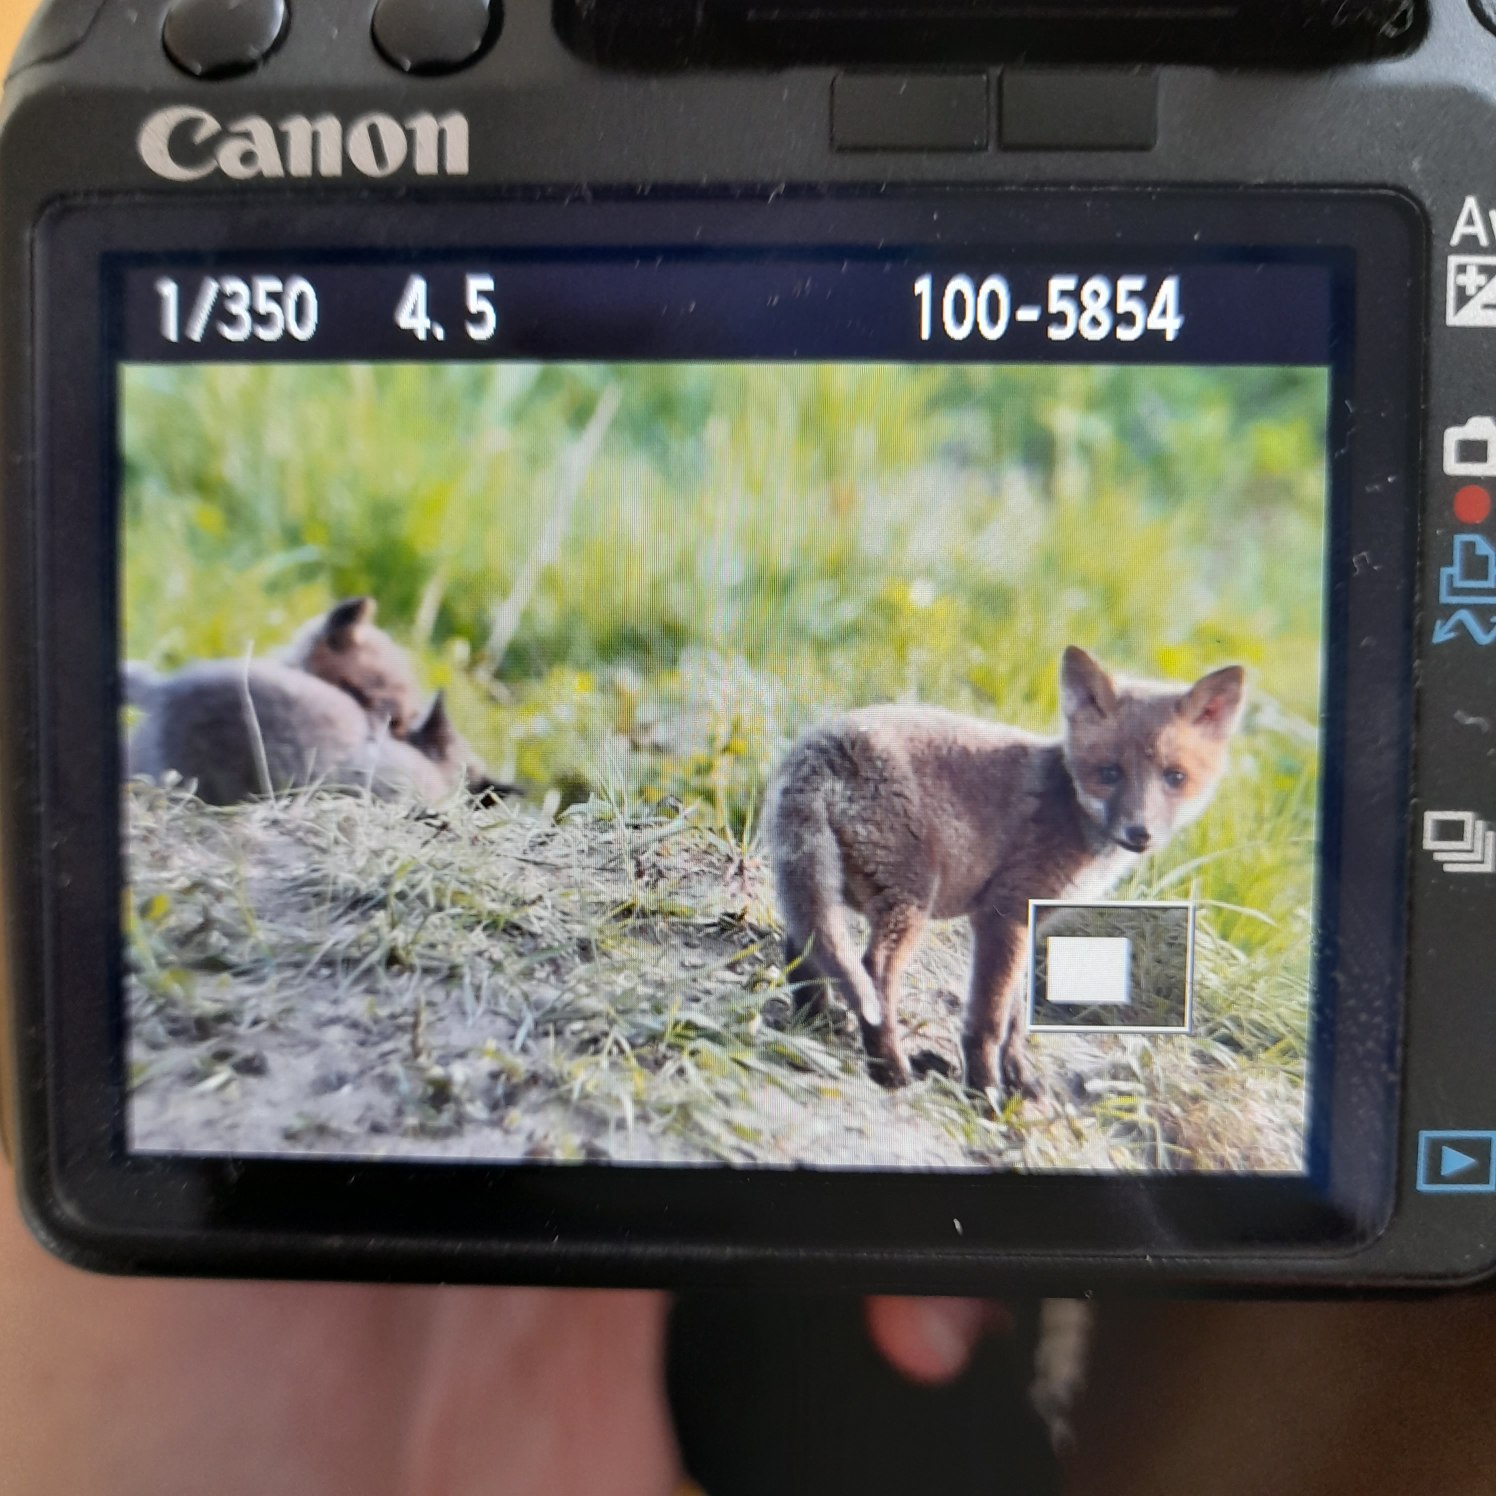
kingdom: Animalia
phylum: Chordata
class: Mammalia
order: Carnivora
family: Canidae
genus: Vulpes
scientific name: Vulpes vulpes
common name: Ræv
